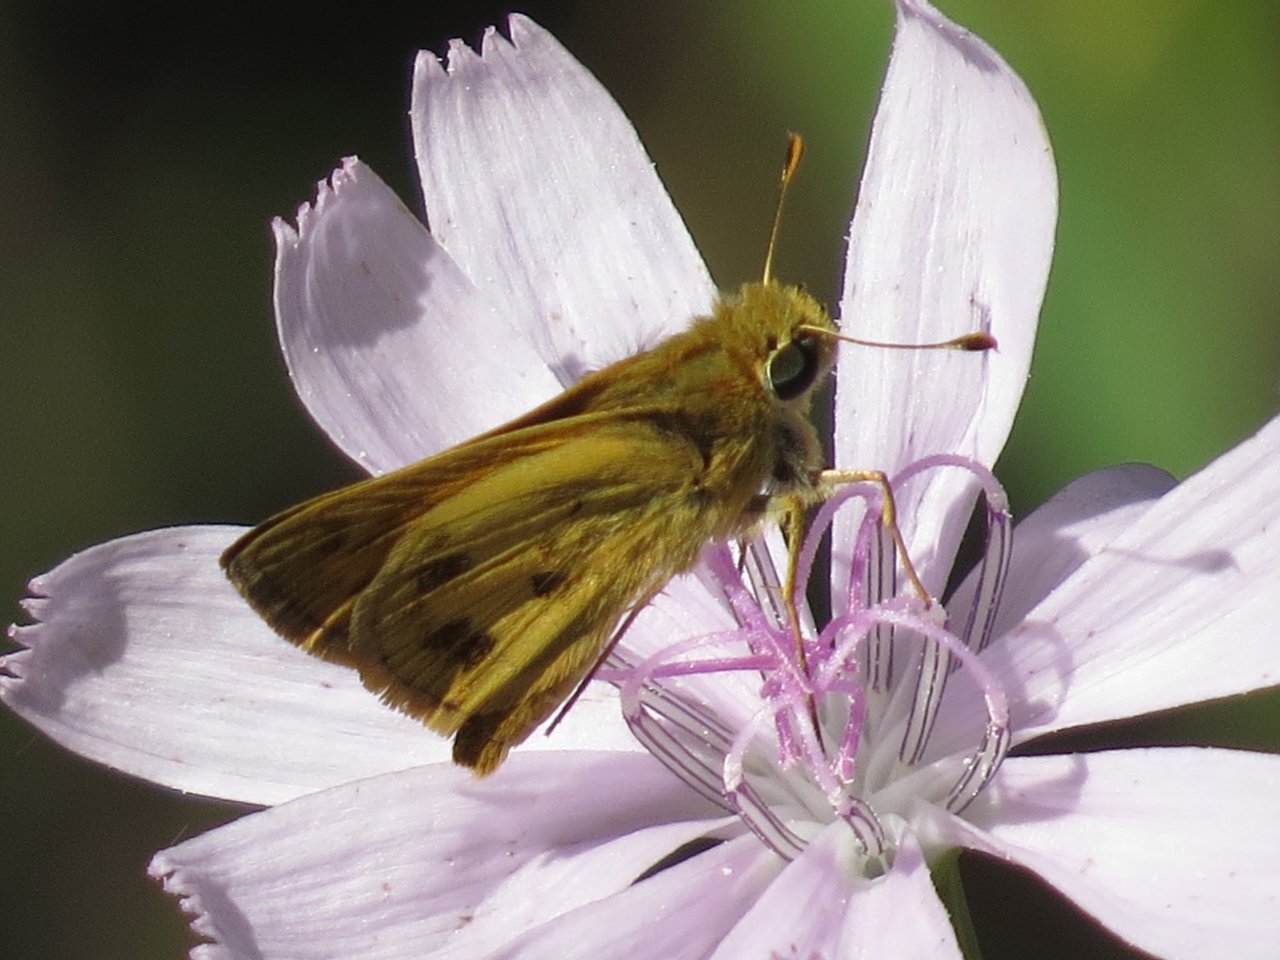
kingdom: Animalia
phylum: Arthropoda
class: Insecta
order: Lepidoptera
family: Hesperiidae
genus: Polites
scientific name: Polites vibex
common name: Whirlabout
